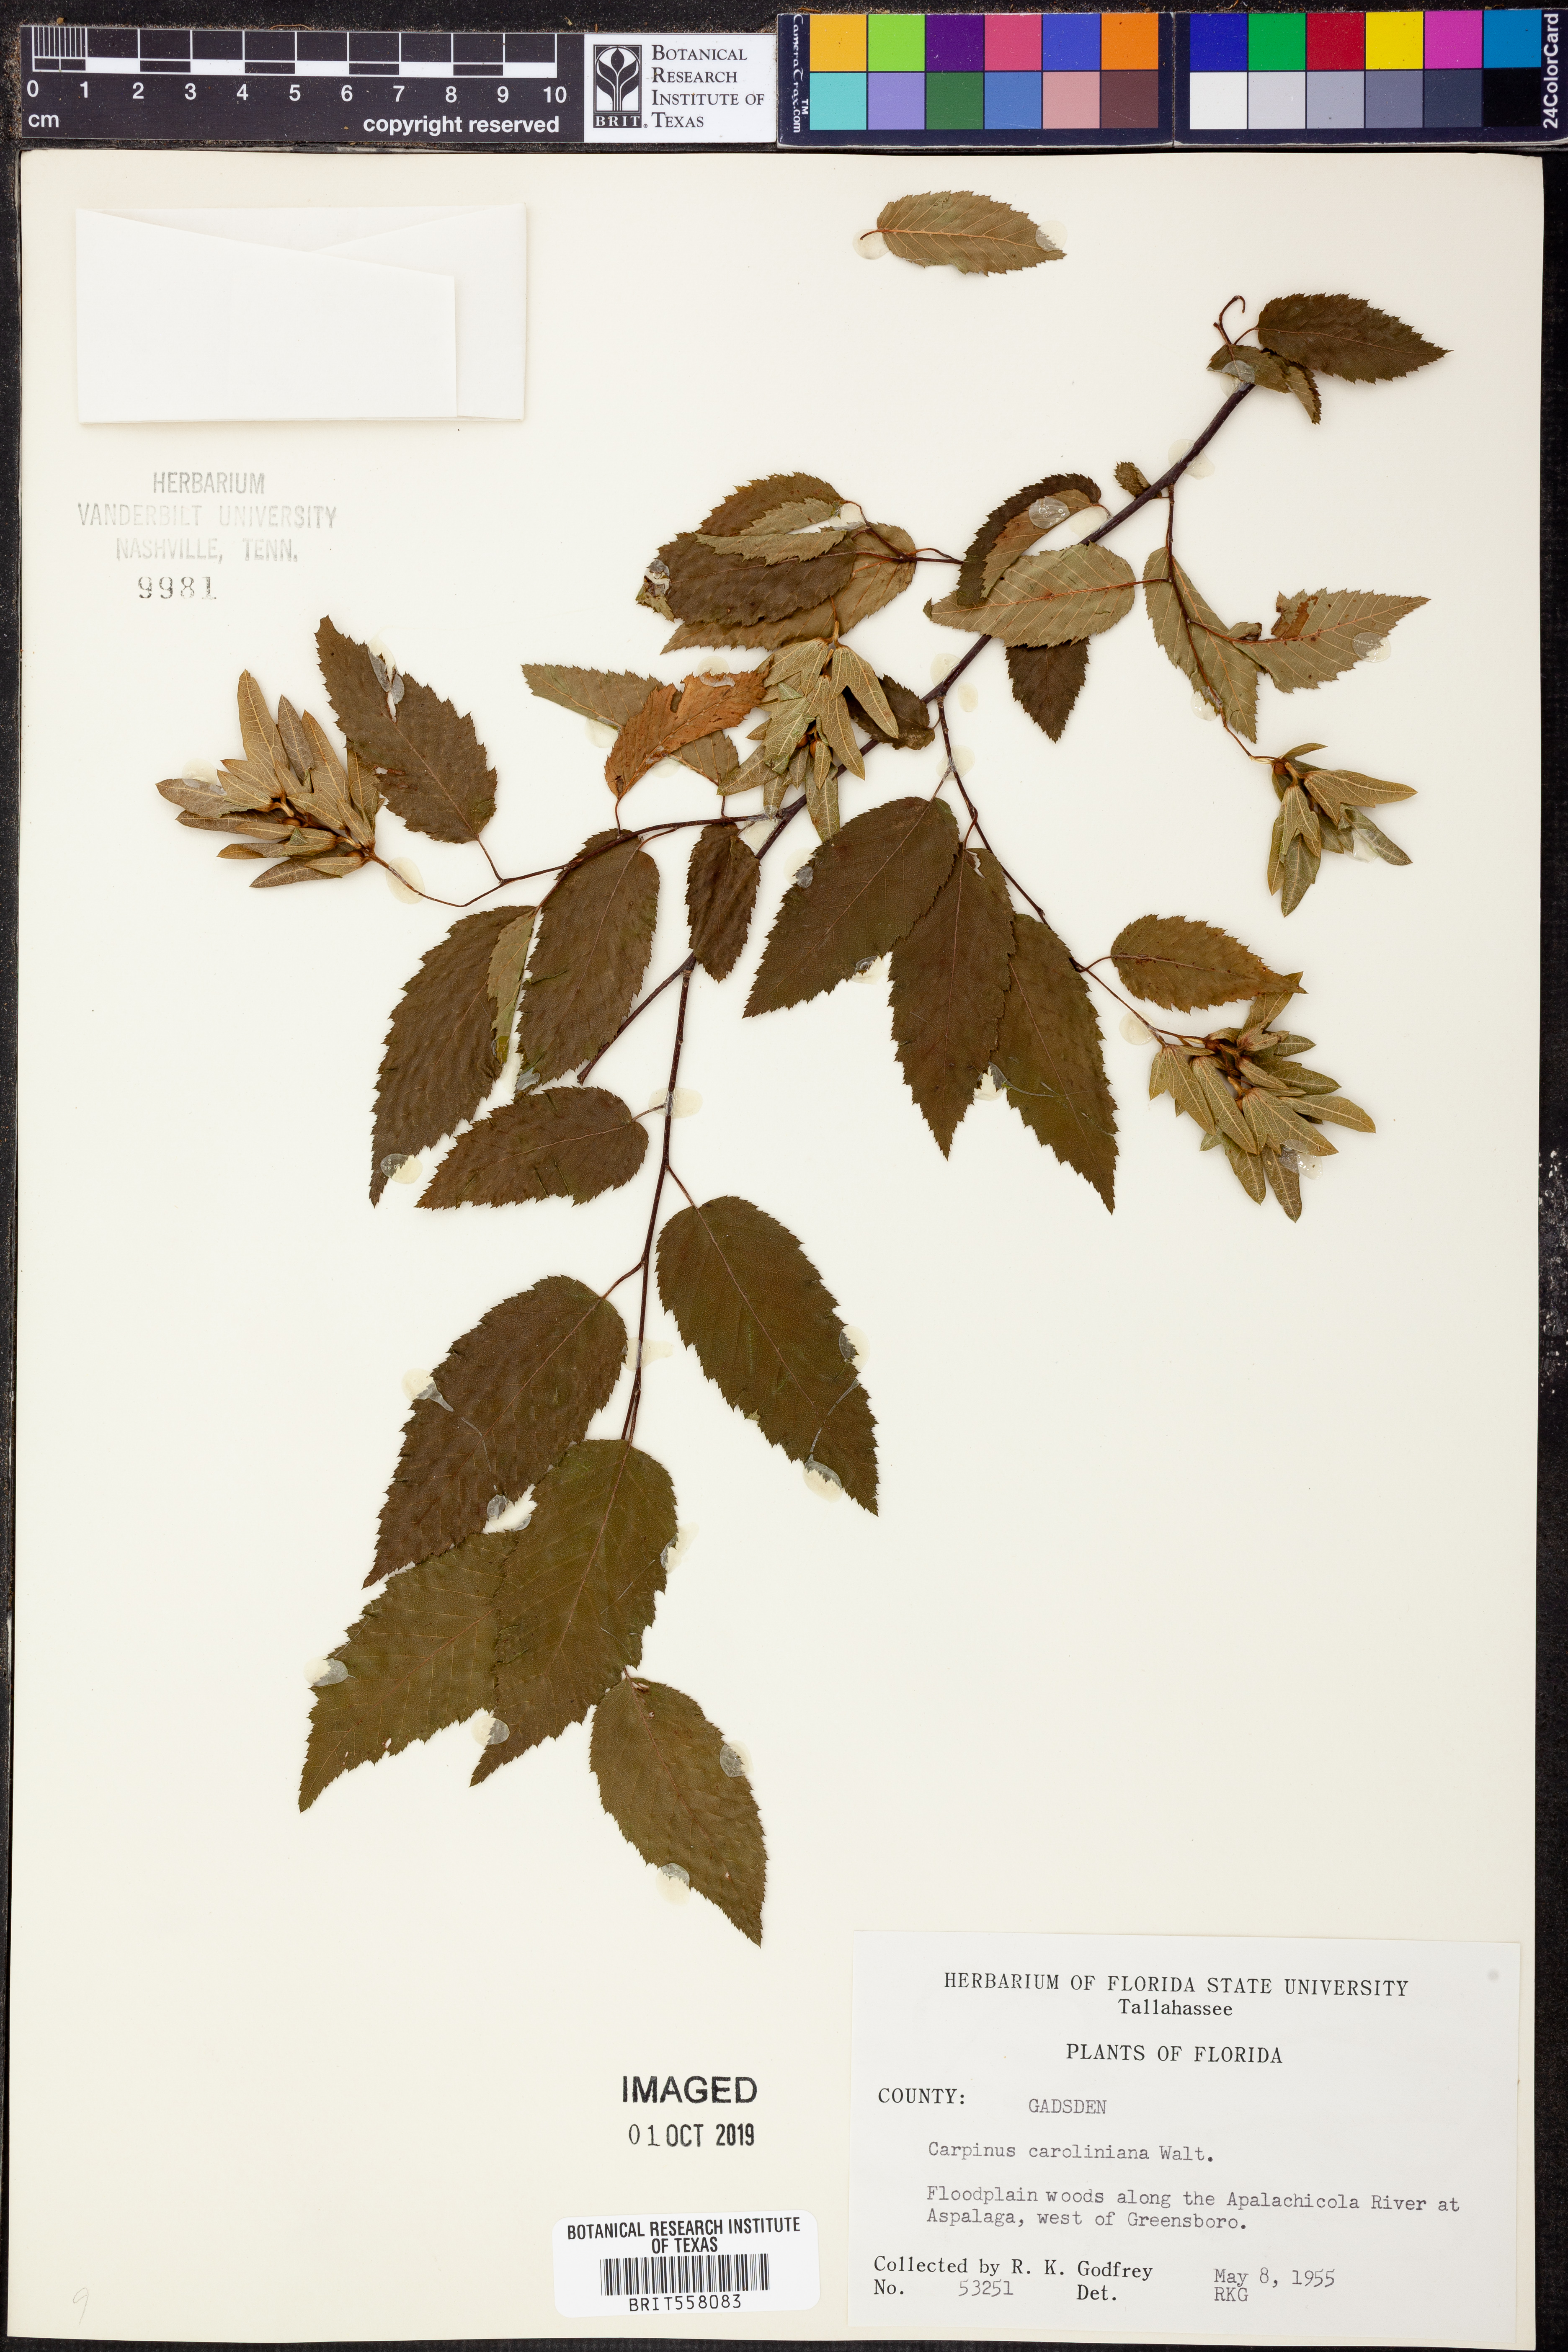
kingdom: Plantae
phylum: Tracheophyta
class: Magnoliopsida
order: Fagales
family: Betulaceae
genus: Carpinus
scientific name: Carpinus caroliniana
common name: American hornbeam
